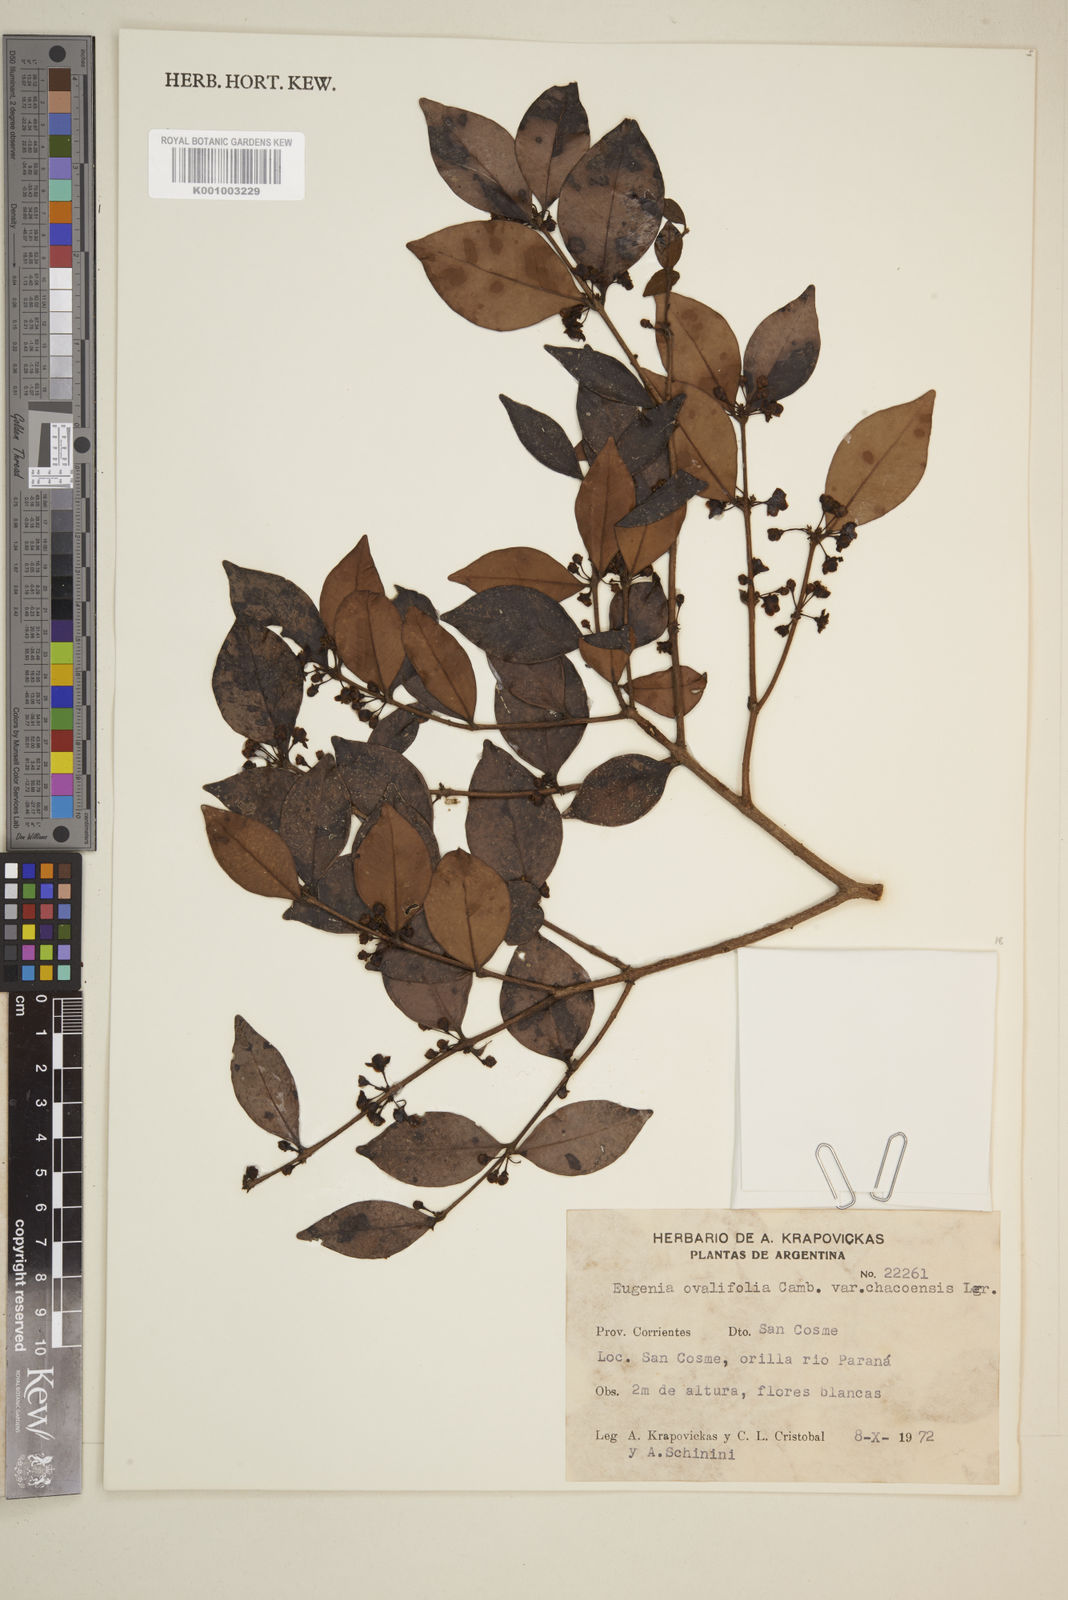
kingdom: Plantae
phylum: Tracheophyta
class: Magnoliopsida
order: Myrtales
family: Myrtaceae
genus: Eugenia
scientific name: Eugenia punicifolia
